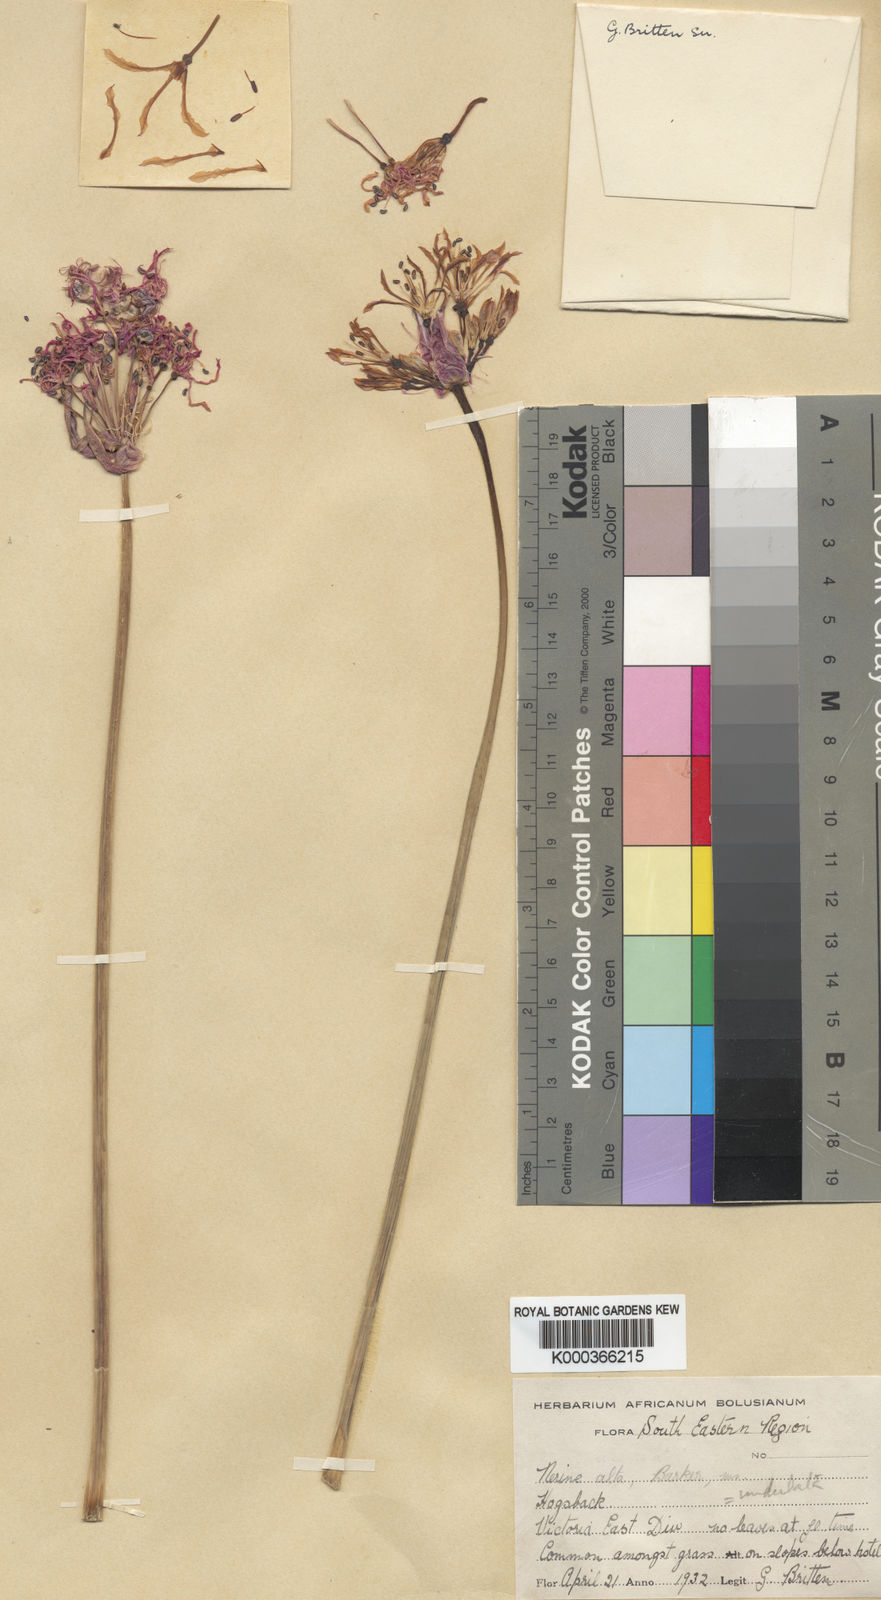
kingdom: Plantae
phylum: Tracheophyta
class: Liliopsida
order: Asparagales
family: Amaryllidaceae
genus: Nerine
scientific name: Nerine undulata
